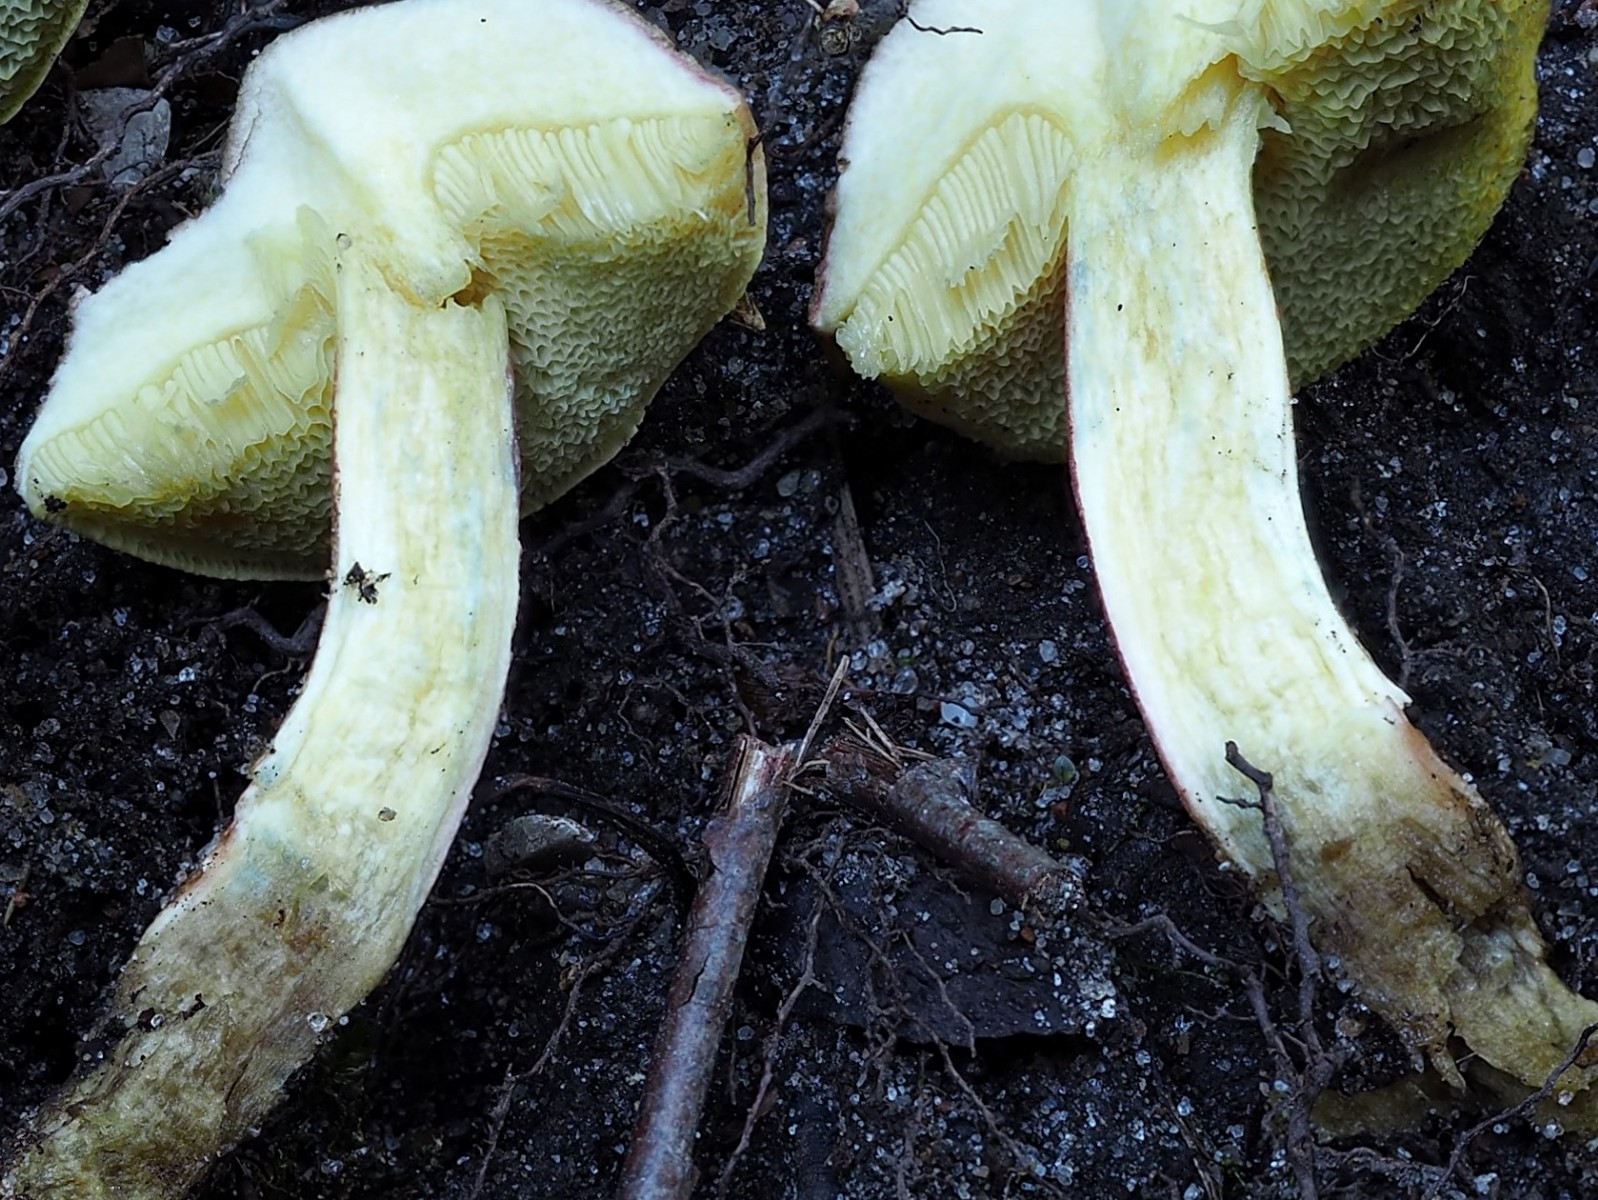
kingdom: Fungi
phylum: Basidiomycota
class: Agaricomycetes
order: Boletales
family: Boletaceae
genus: Xerocomellus
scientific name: Xerocomellus pruinatus
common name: dugget rørhat
